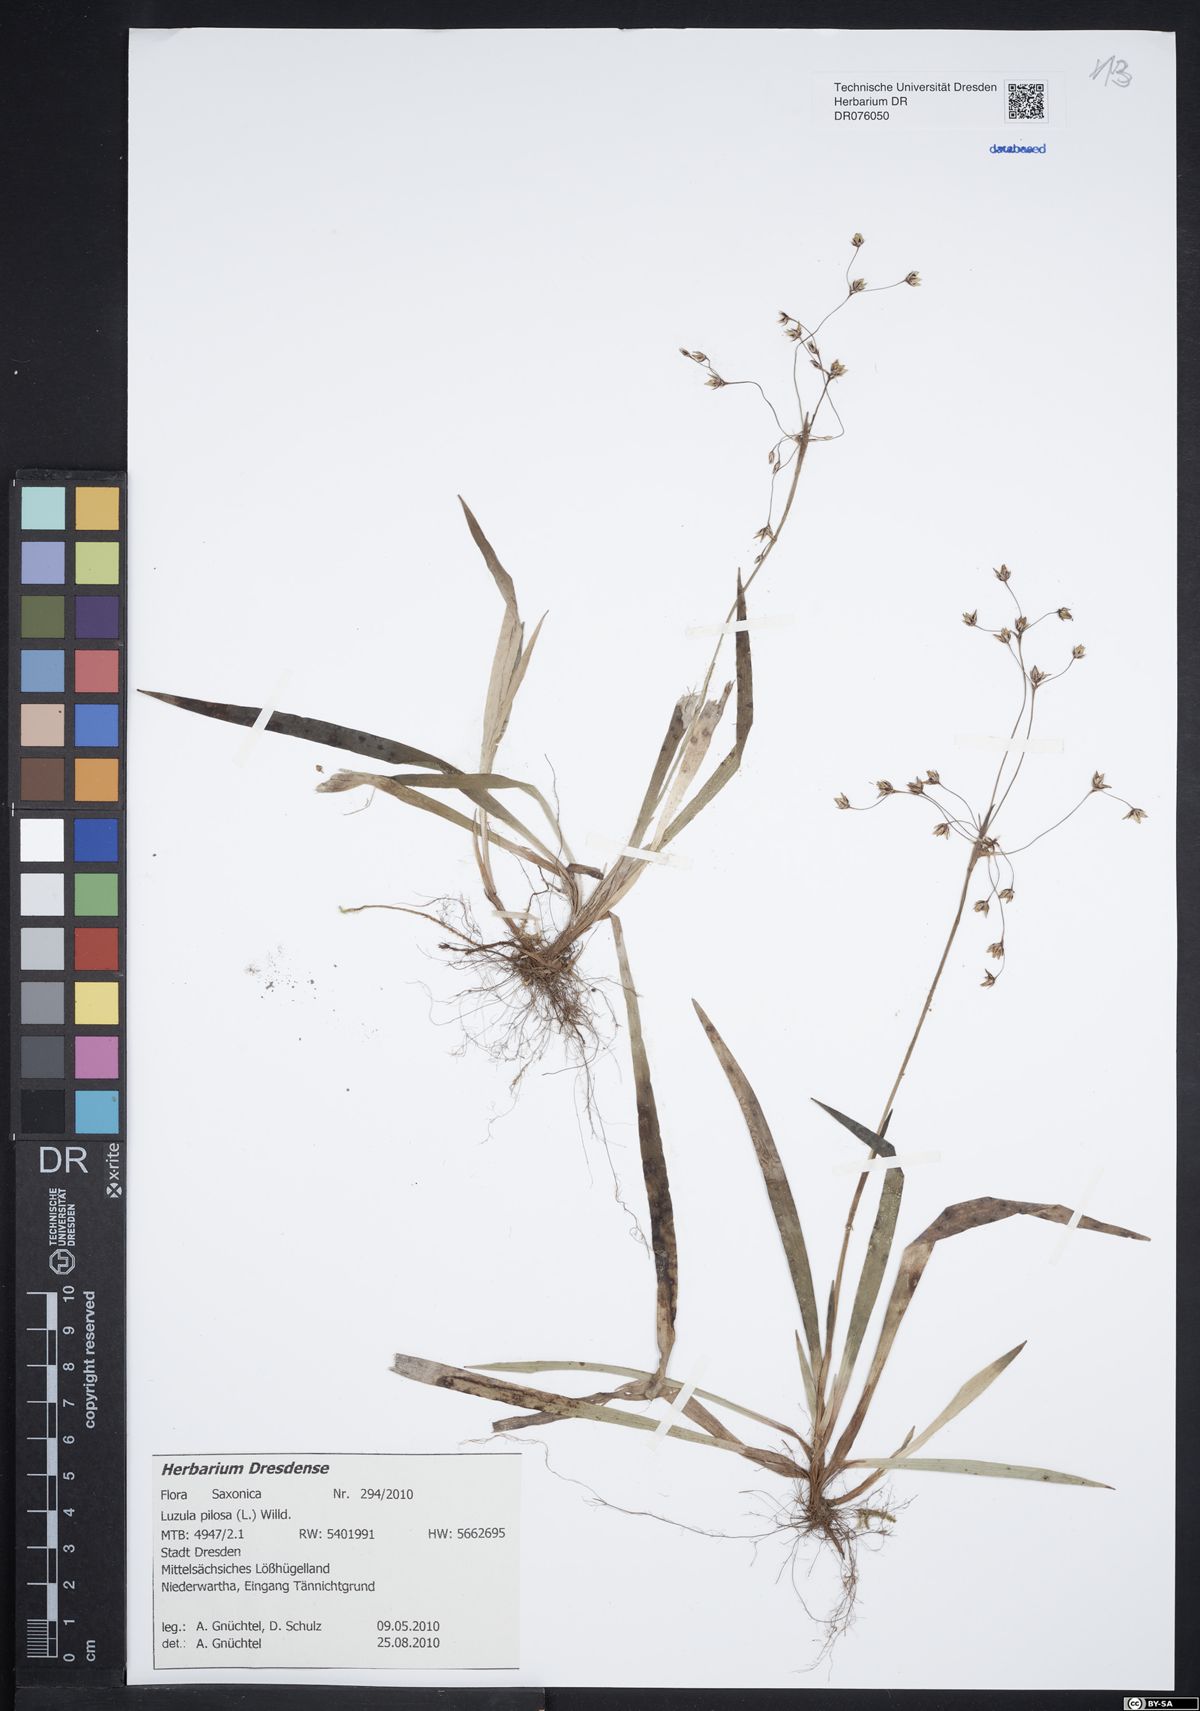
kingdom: Plantae
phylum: Tracheophyta
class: Liliopsida
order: Poales
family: Juncaceae
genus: Luzula
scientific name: Luzula pilosa
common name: Hairy wood-rush
